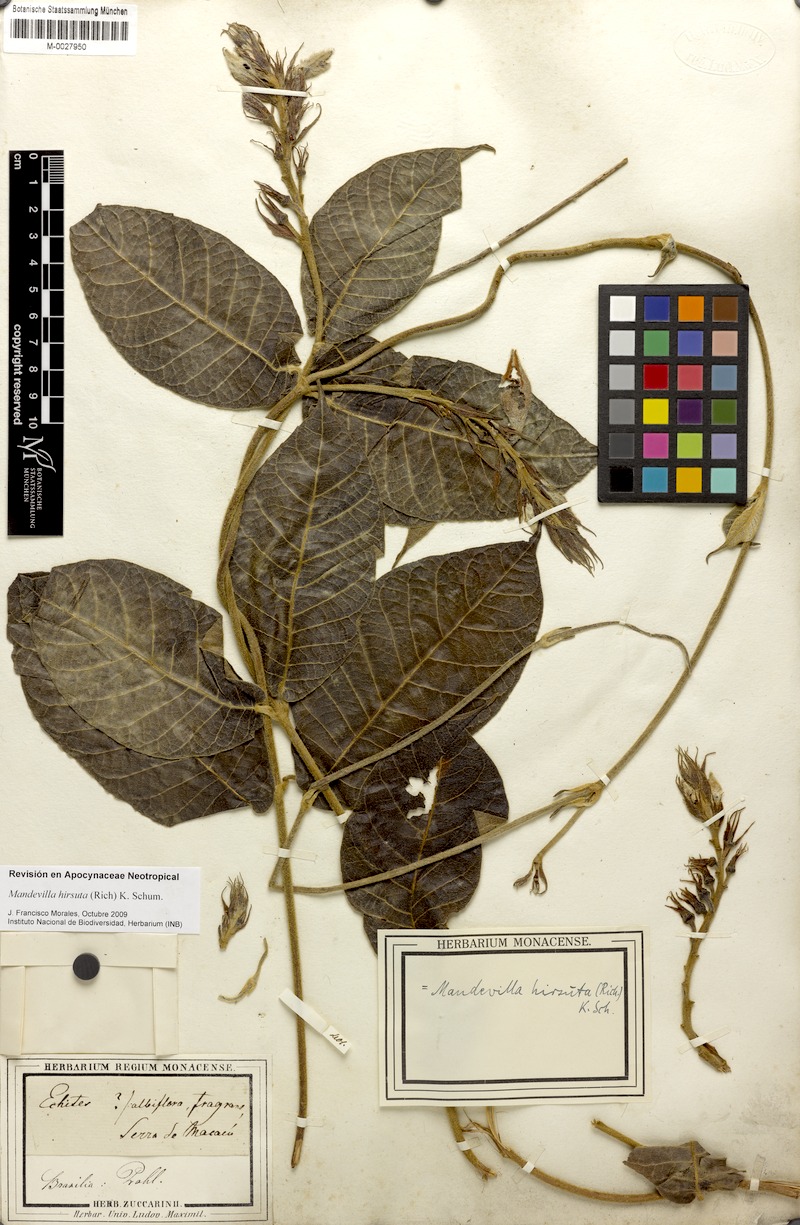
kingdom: Plantae
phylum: Tracheophyta
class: Magnoliopsida
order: Gentianales
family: Apocynaceae
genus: Mandevilla
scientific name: Mandevilla hirsuta
